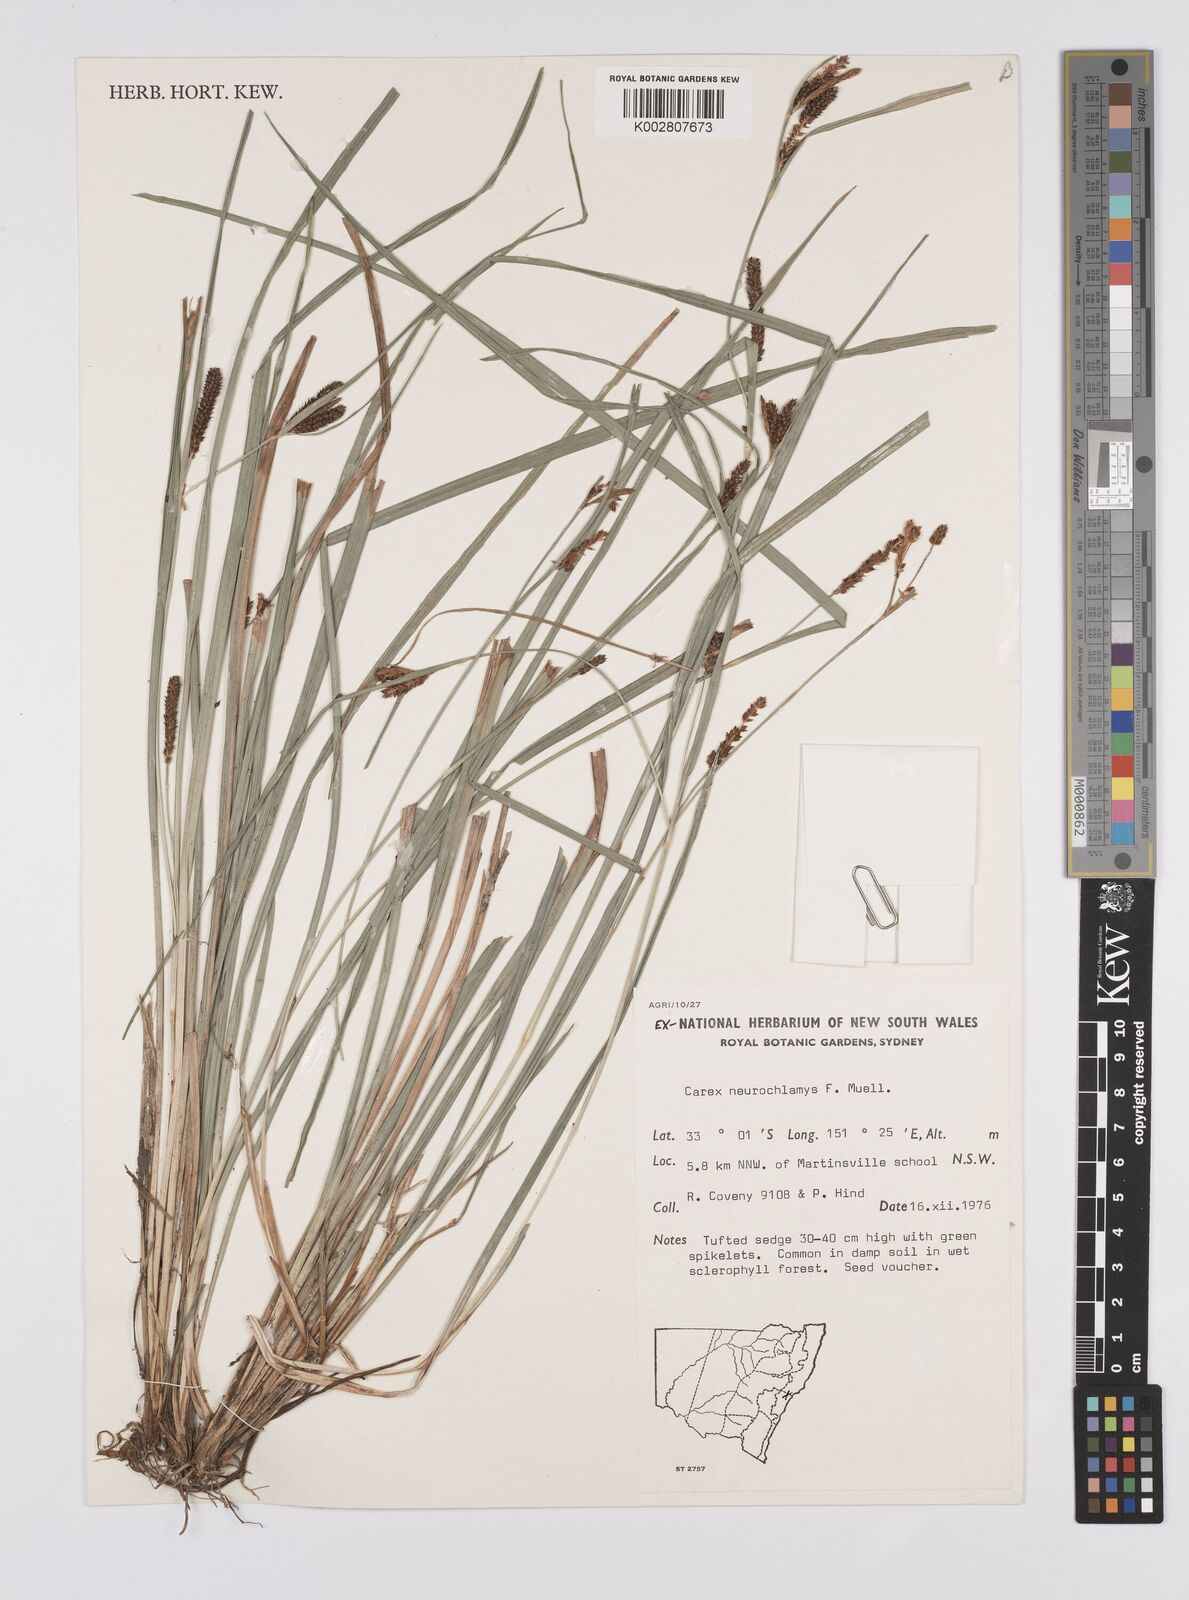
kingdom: Plantae
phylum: Tracheophyta
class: Liliopsida
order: Poales
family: Cyperaceae
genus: Carex
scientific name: Carex maculata
